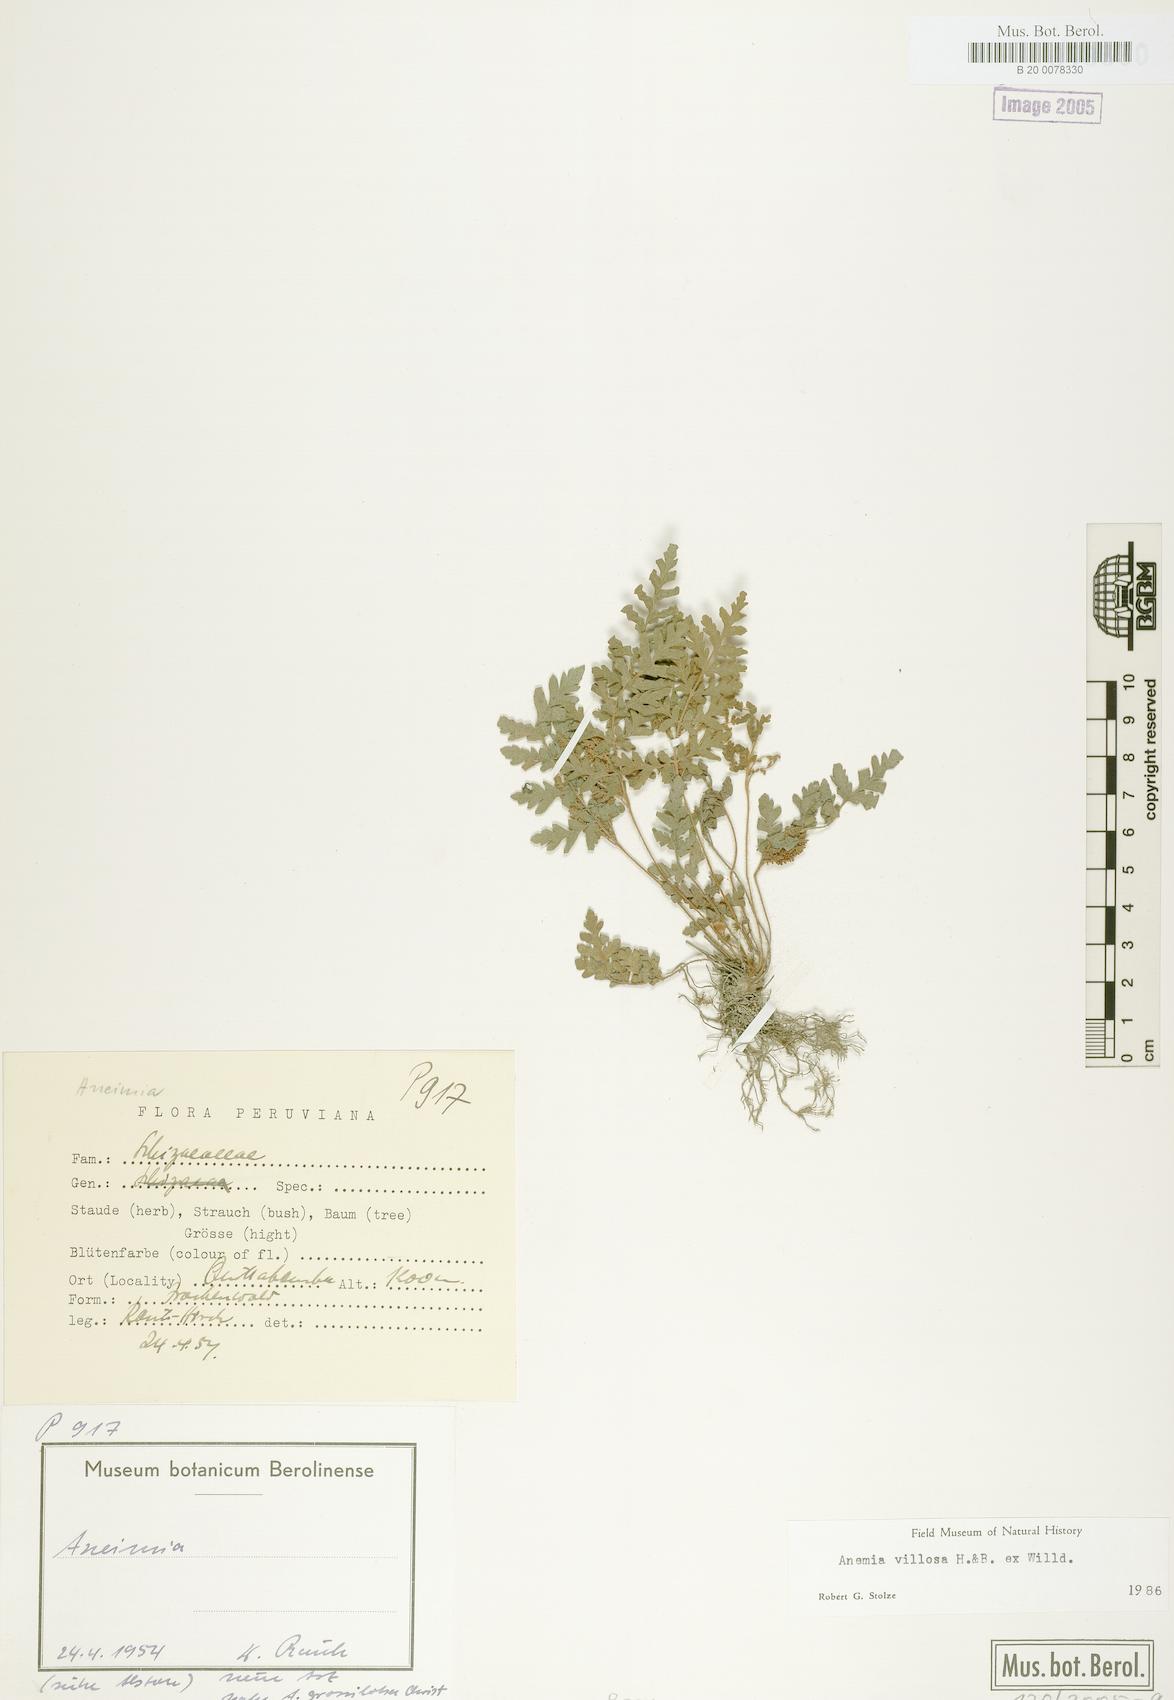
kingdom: Plantae
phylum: Tracheophyta
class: Polypodiopsida
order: Schizaeales
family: Anemiaceae
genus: Anemia
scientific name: Anemia clinata
